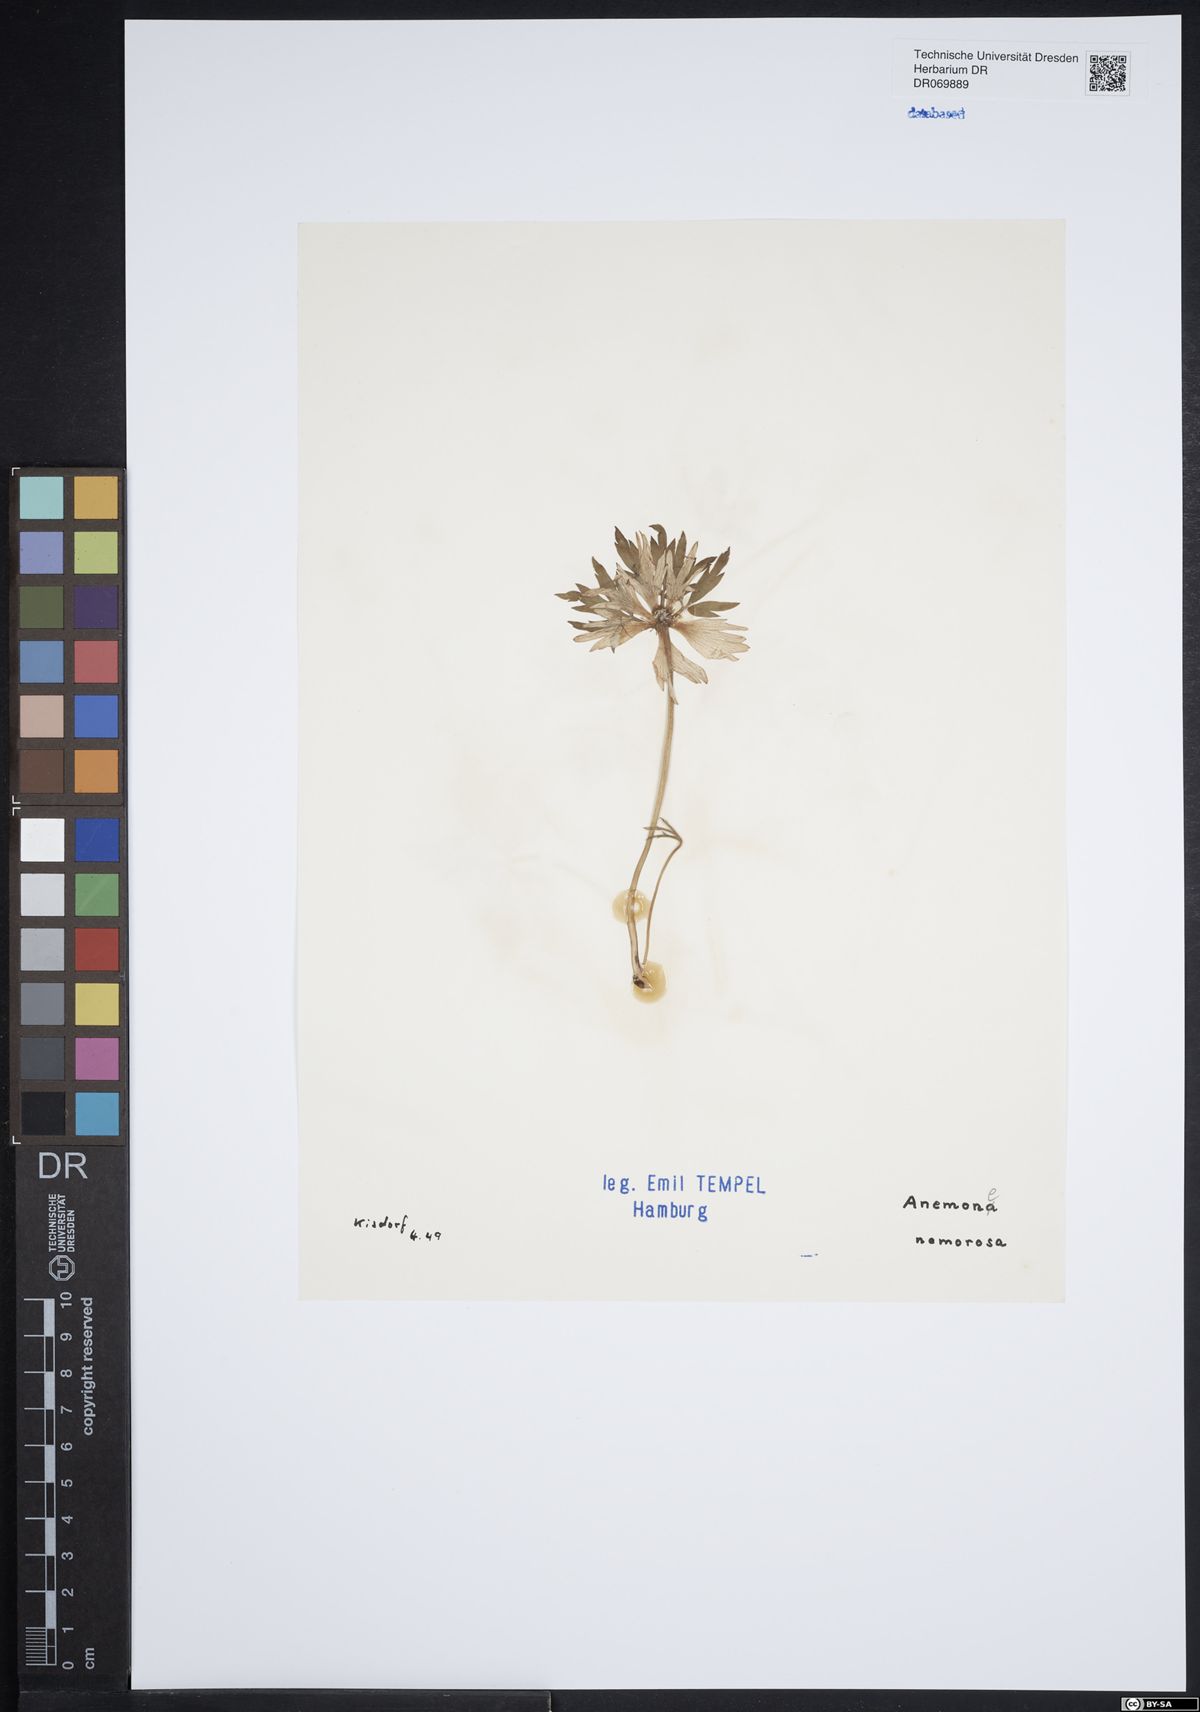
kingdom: Plantae
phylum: Tracheophyta
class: Magnoliopsida
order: Ranunculales
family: Ranunculaceae
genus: Anemone
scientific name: Anemone nemorosa
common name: Wood anemone
